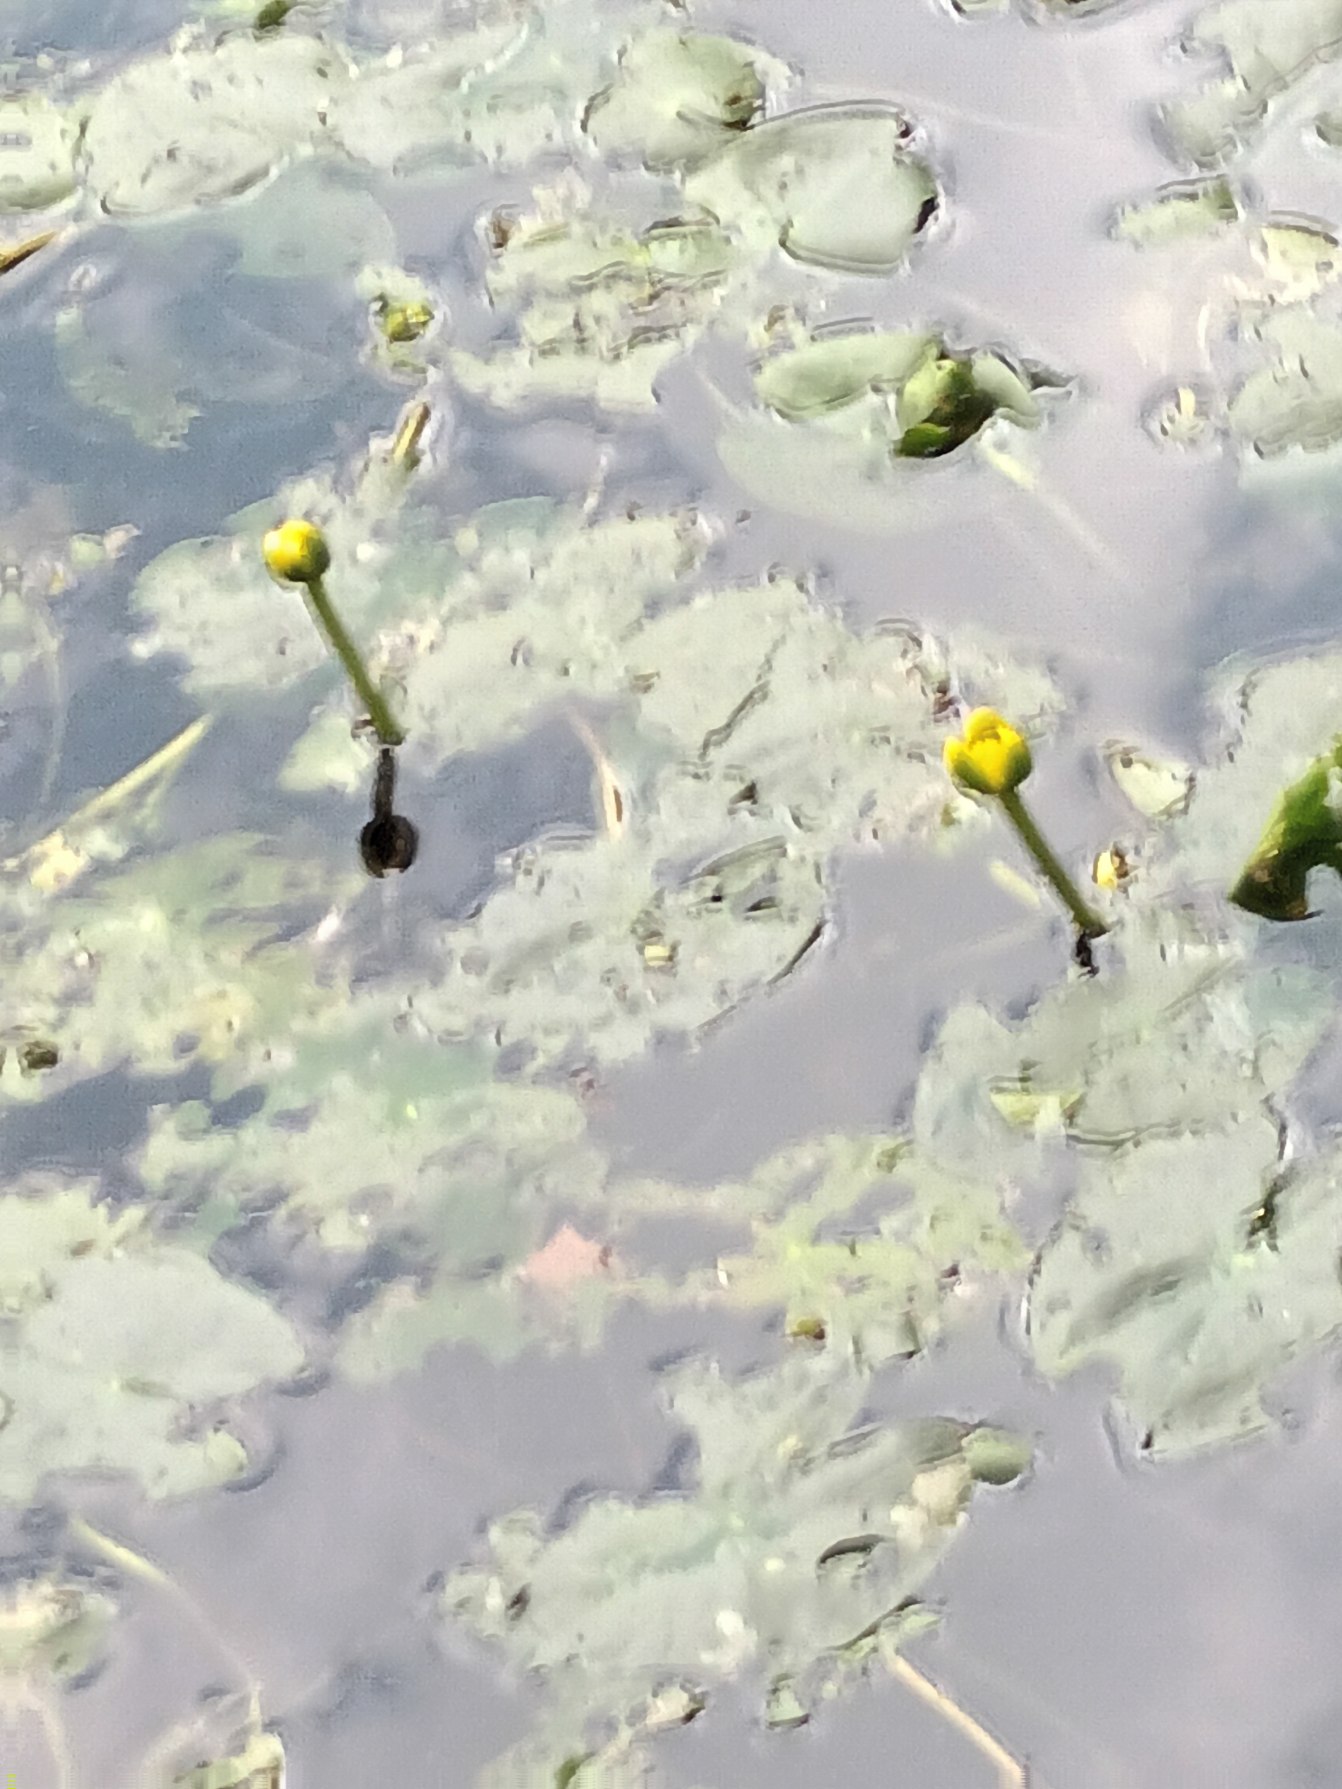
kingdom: Plantae
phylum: Tracheophyta
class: Magnoliopsida
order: Nymphaeales
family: Nymphaeaceae
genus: Nuphar
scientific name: Nuphar pumila
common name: Liden åkande
